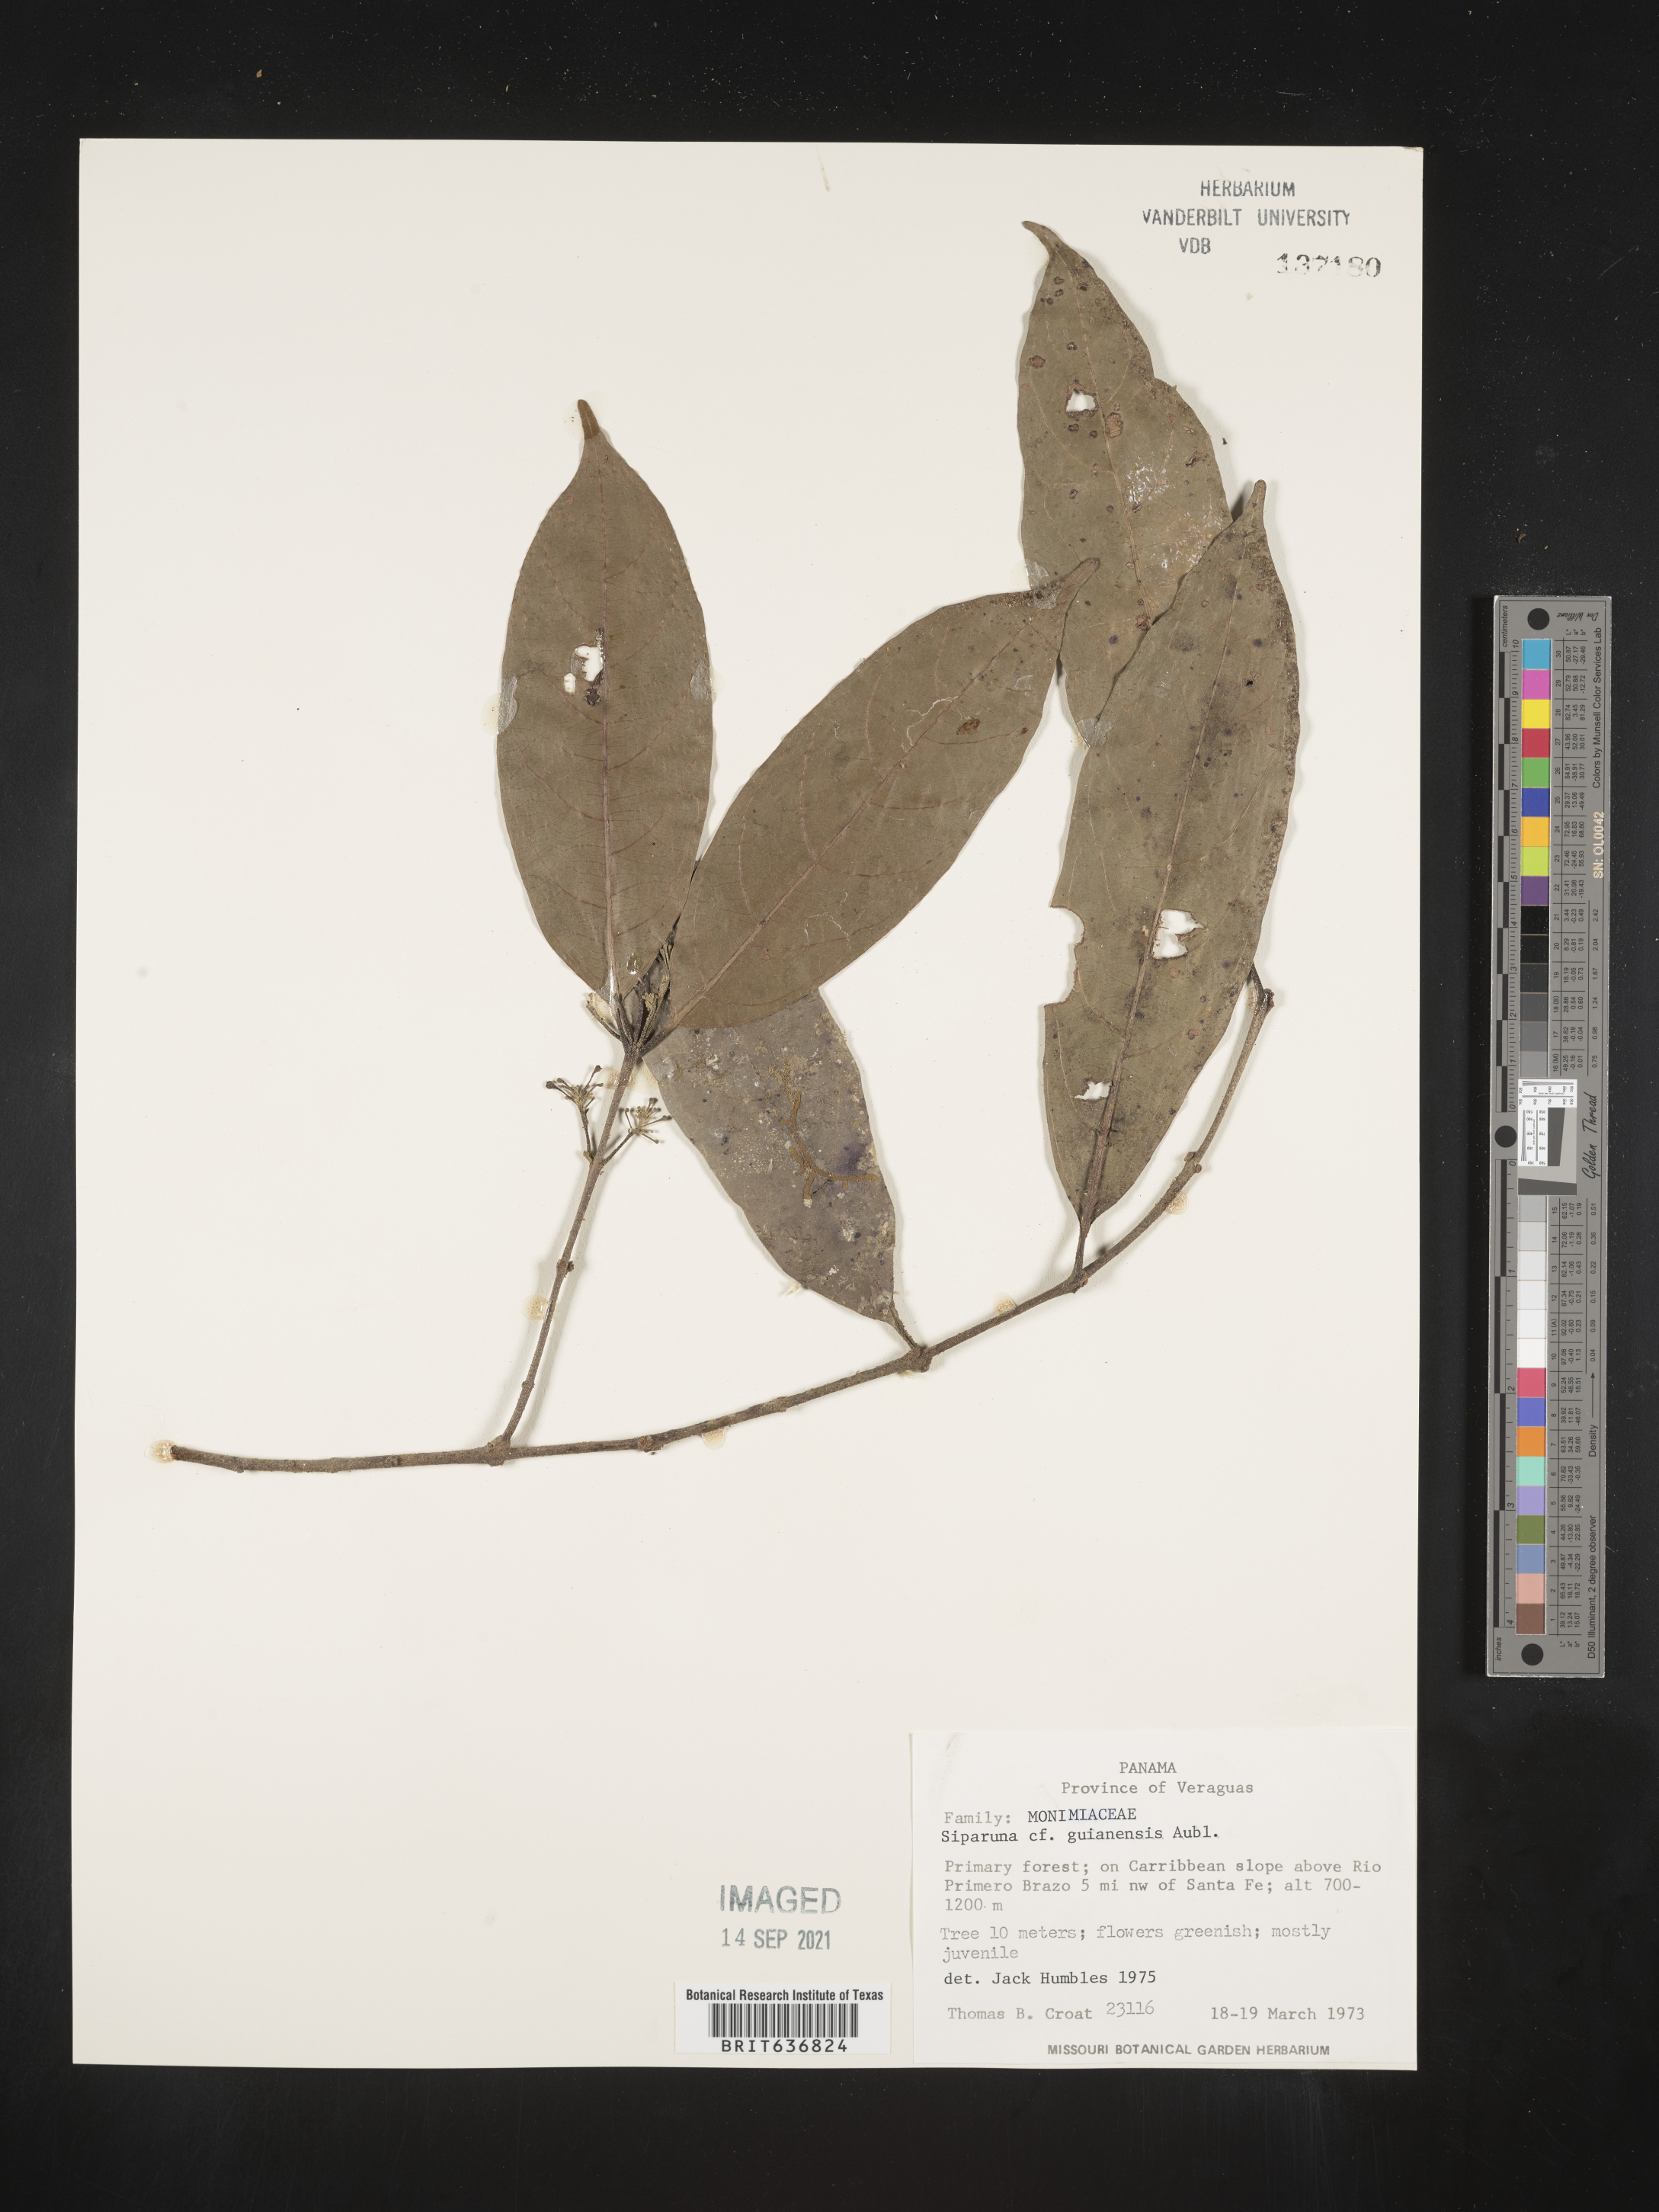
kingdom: Plantae
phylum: Tracheophyta
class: Magnoliopsida
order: Laurales
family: Siparunaceae
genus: Siparuna
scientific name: Siparuna
